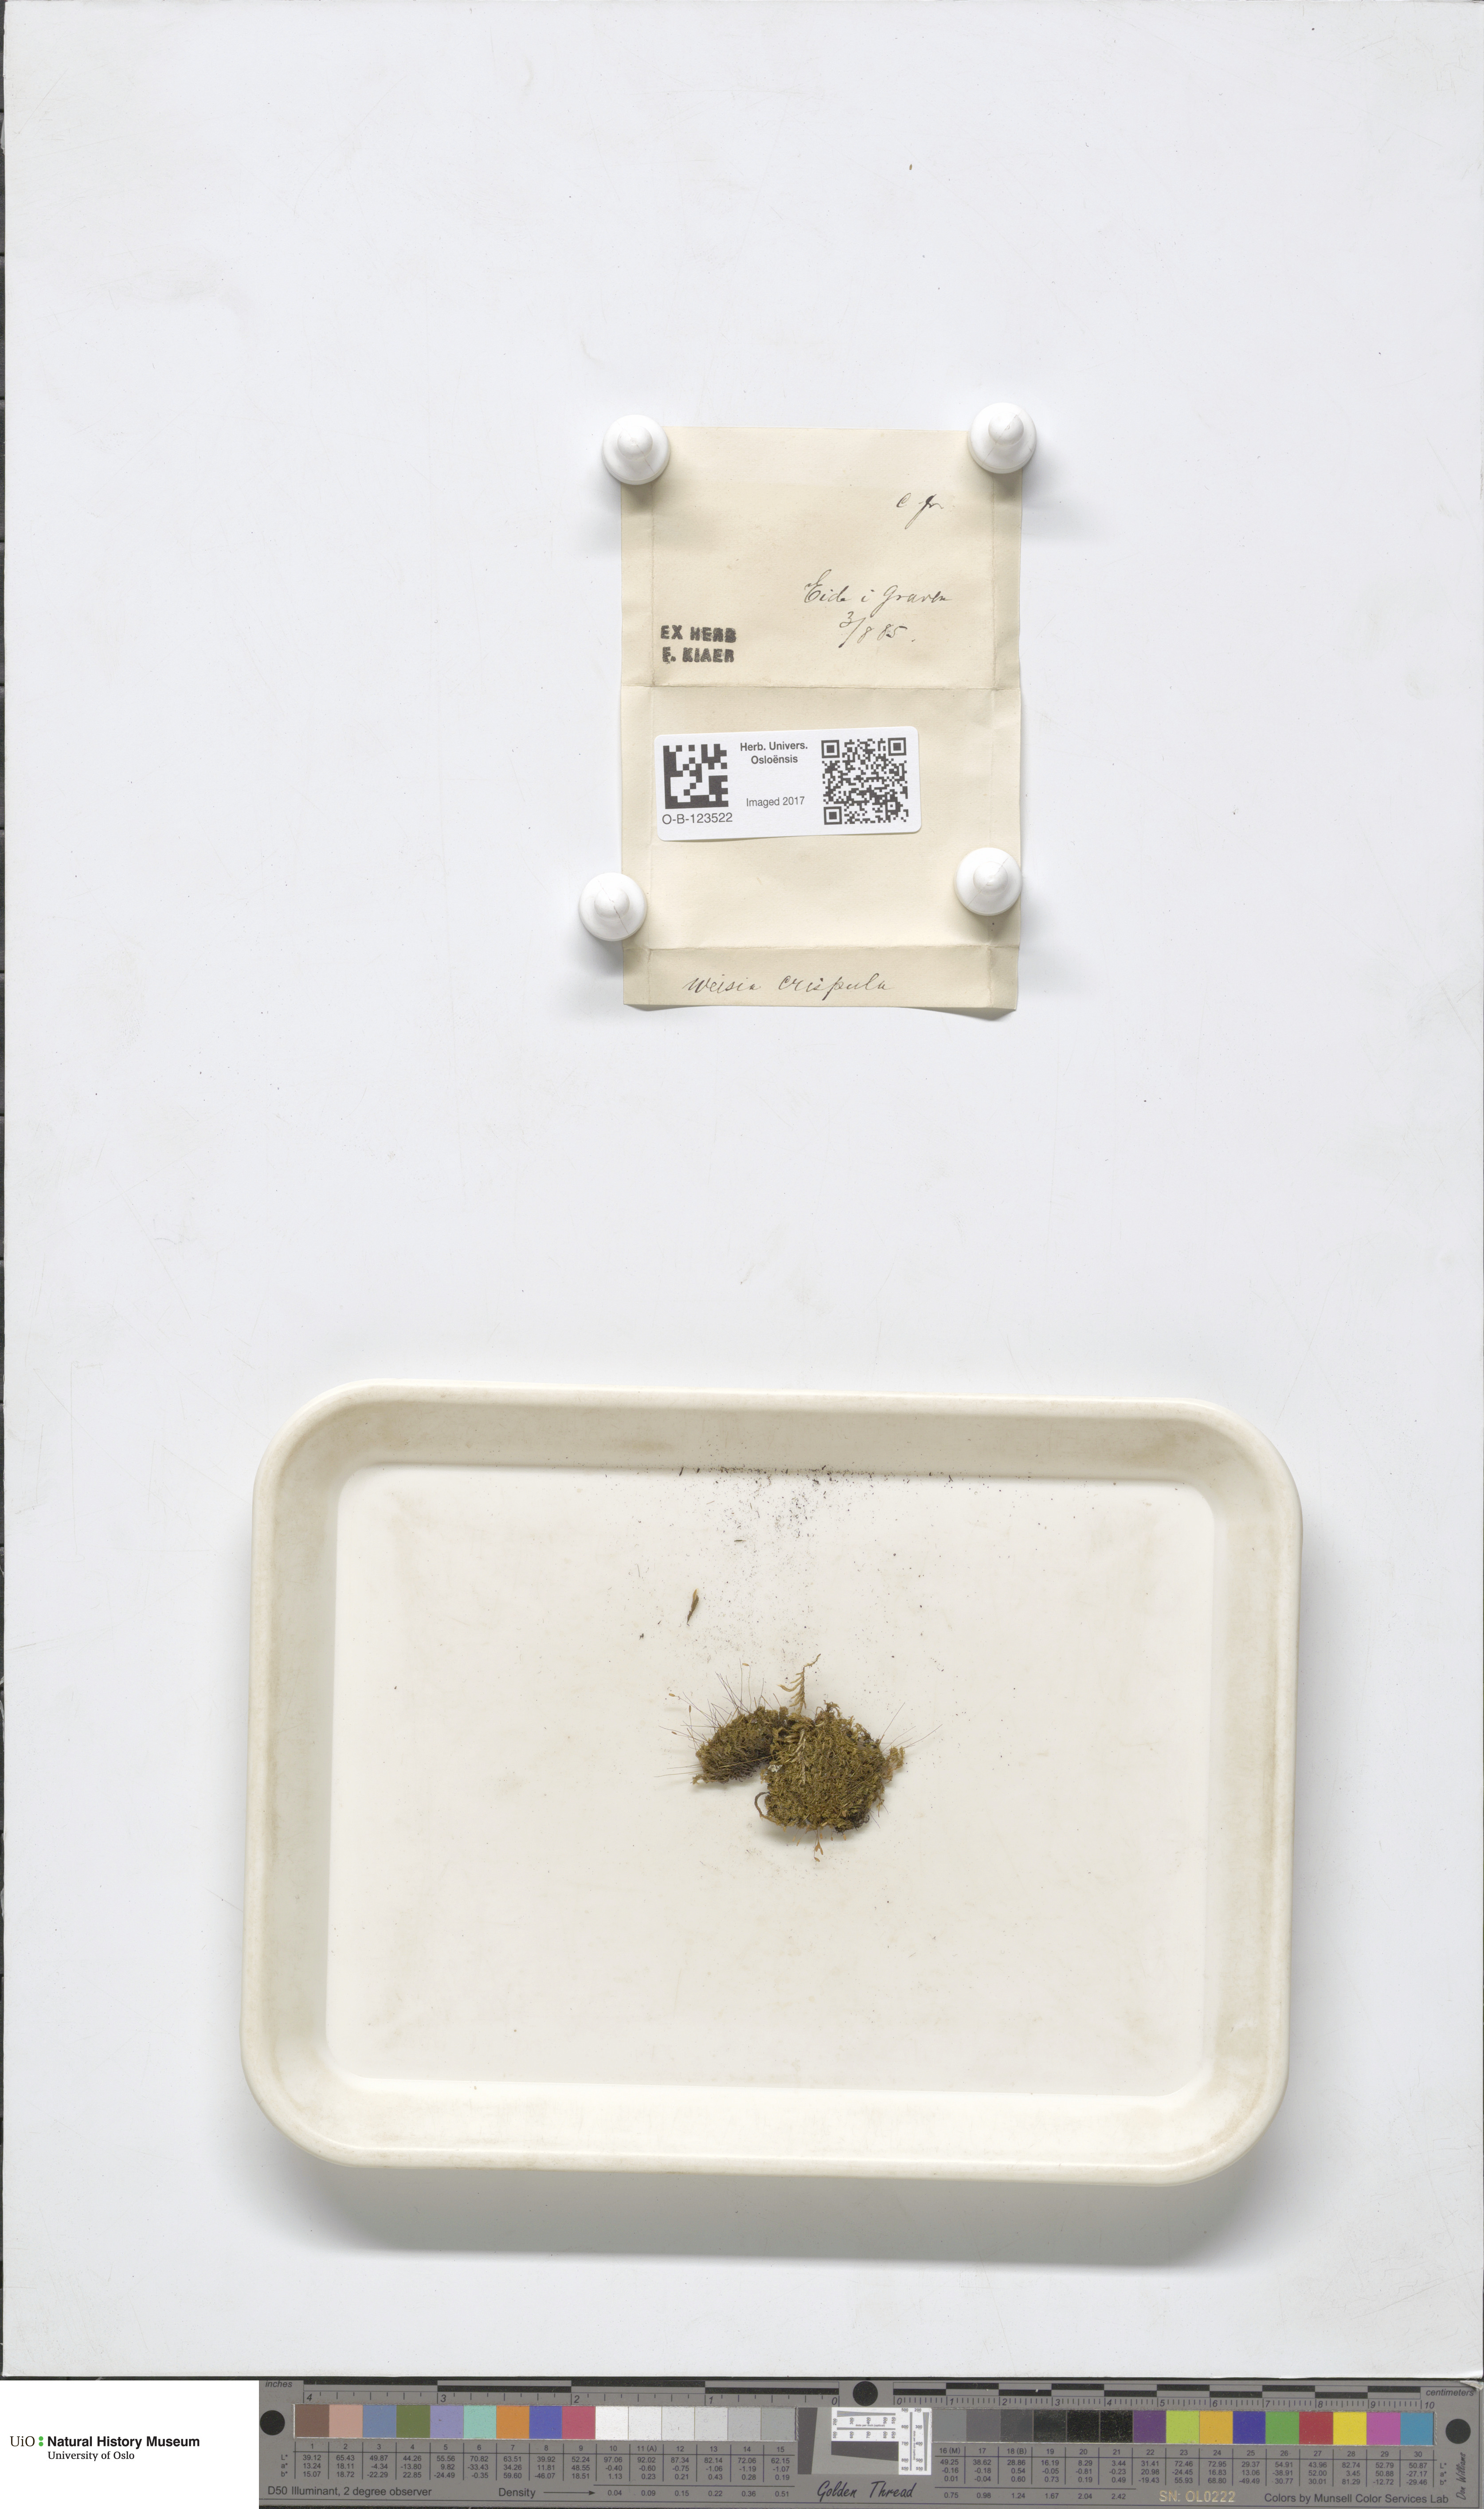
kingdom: Plantae
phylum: Bryophyta
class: Bryopsida
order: Scouleriales
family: Hymenolomataceae
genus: Hymenoloma
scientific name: Hymenoloma crispulum
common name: Mountain pincushion
